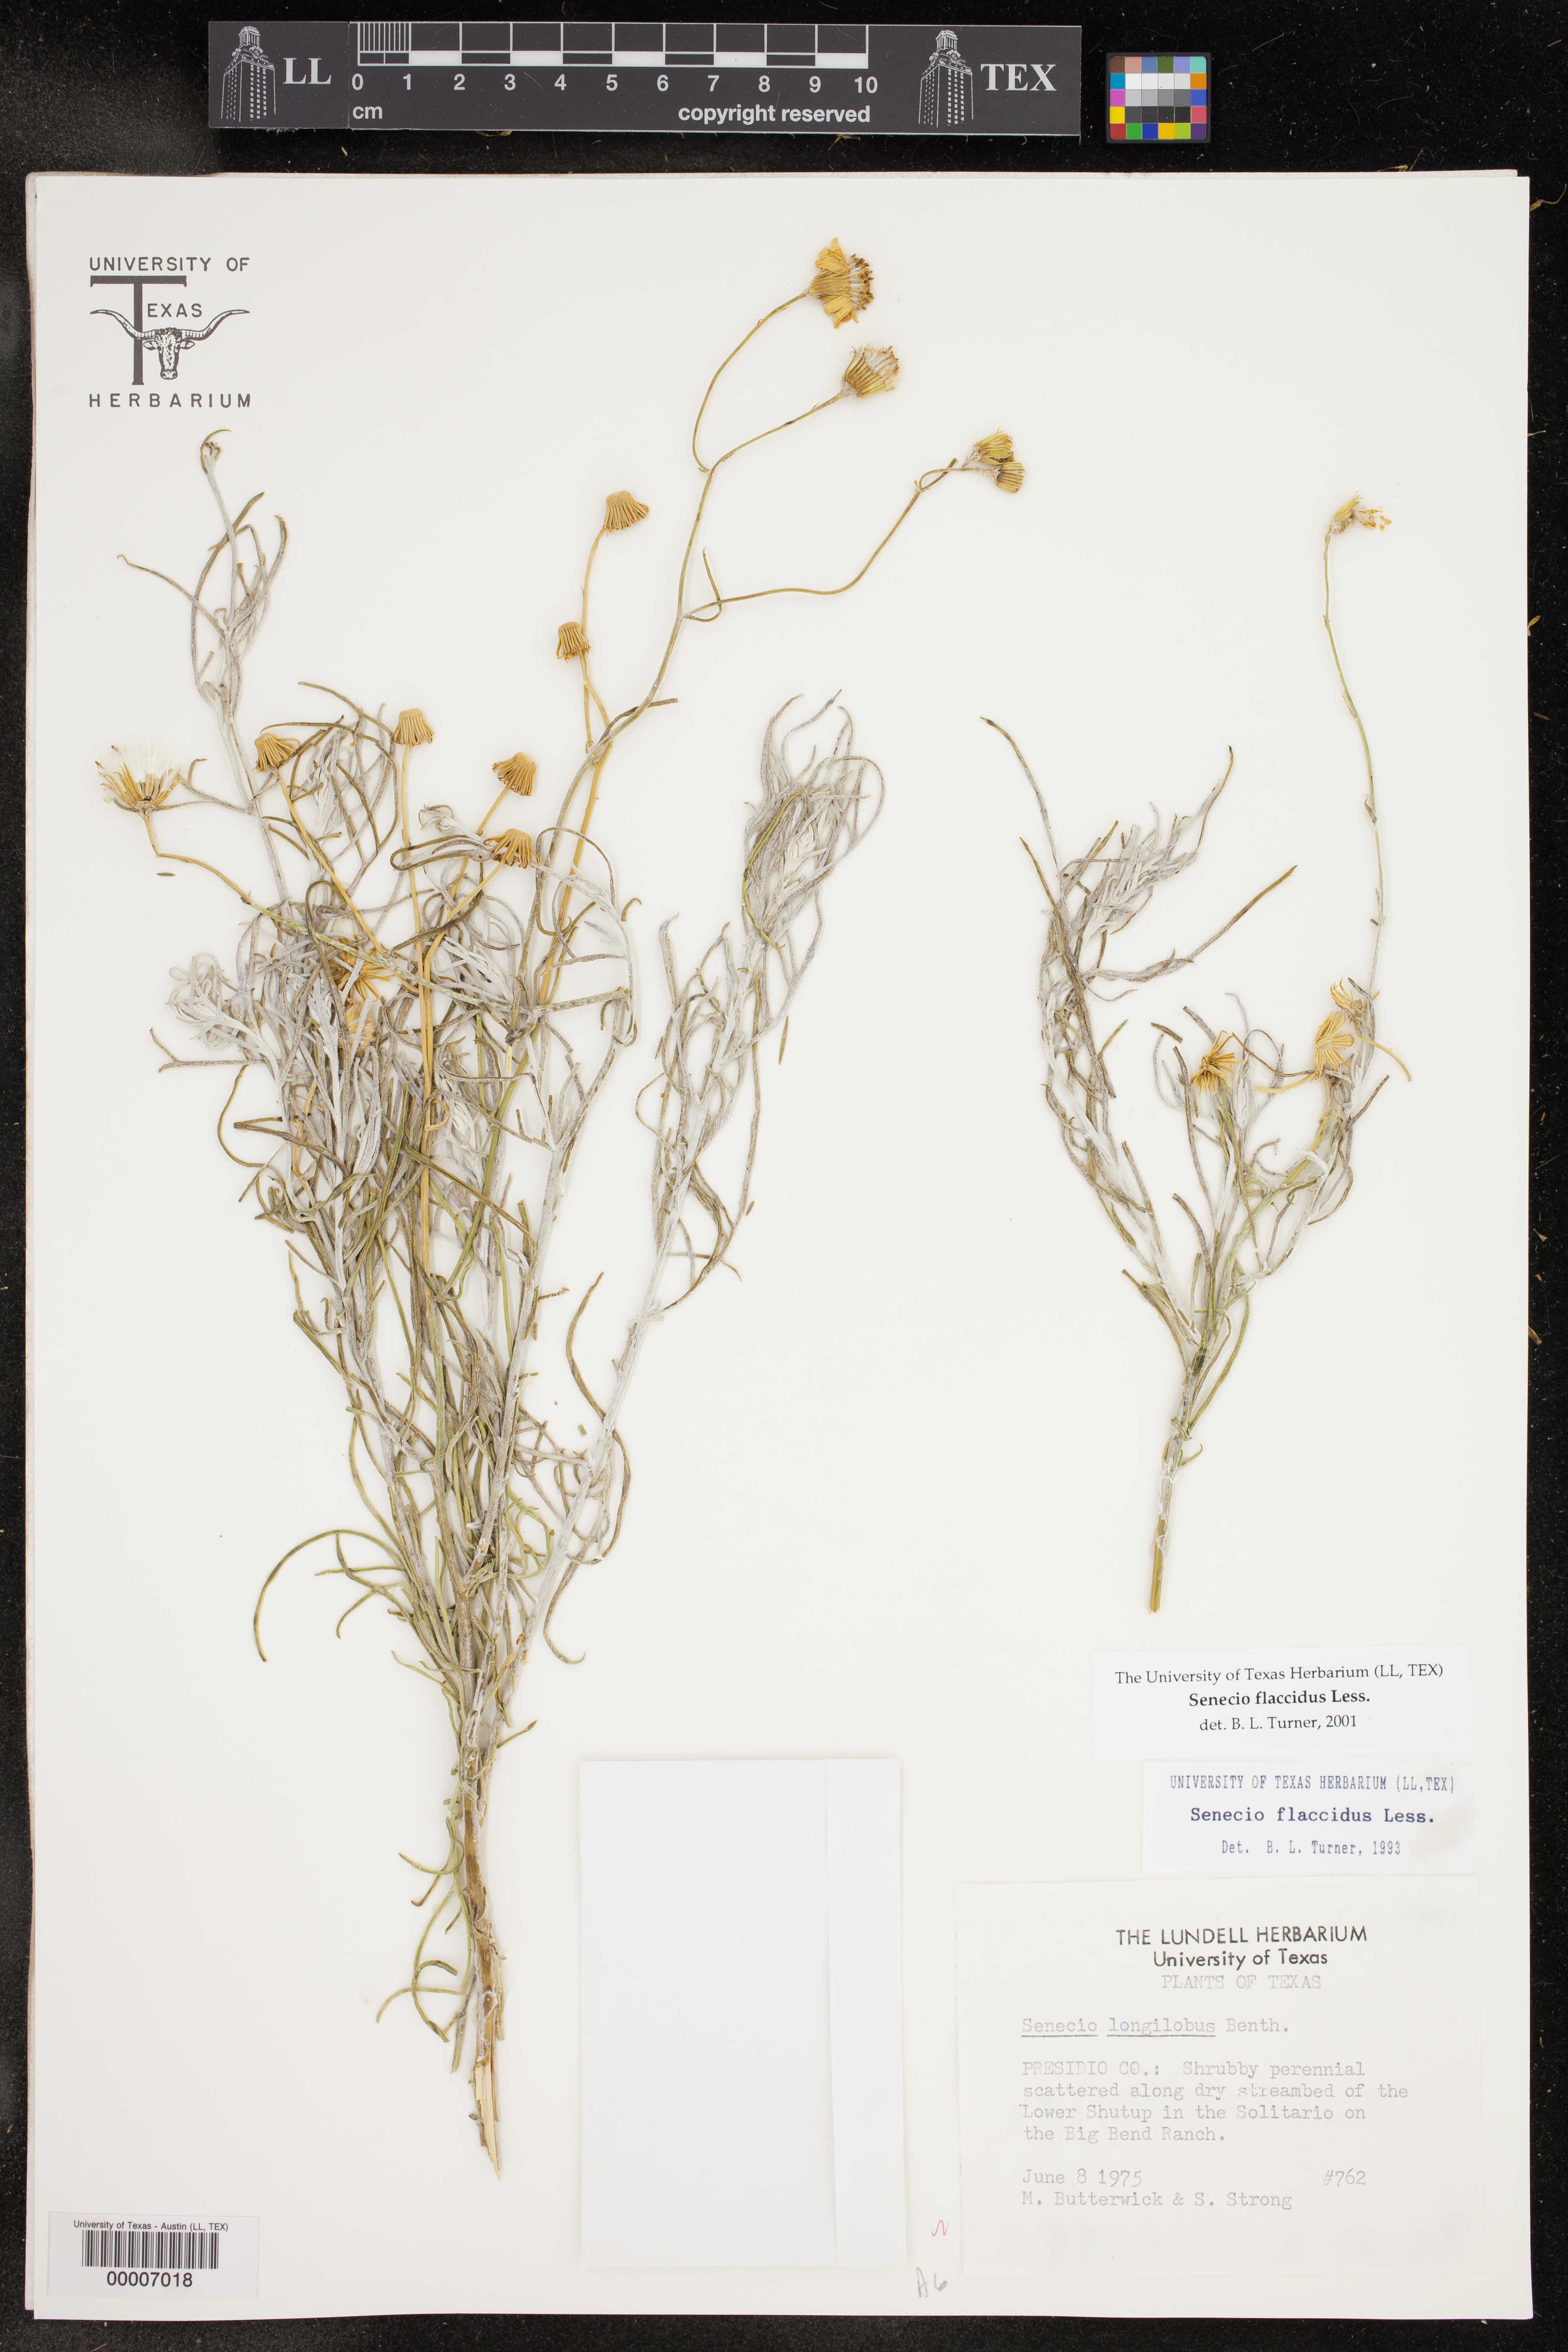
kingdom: Plantae
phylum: Tracheophyta
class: Magnoliopsida
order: Asterales
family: Asteraceae
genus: Senecio
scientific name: Senecio flaccidus
